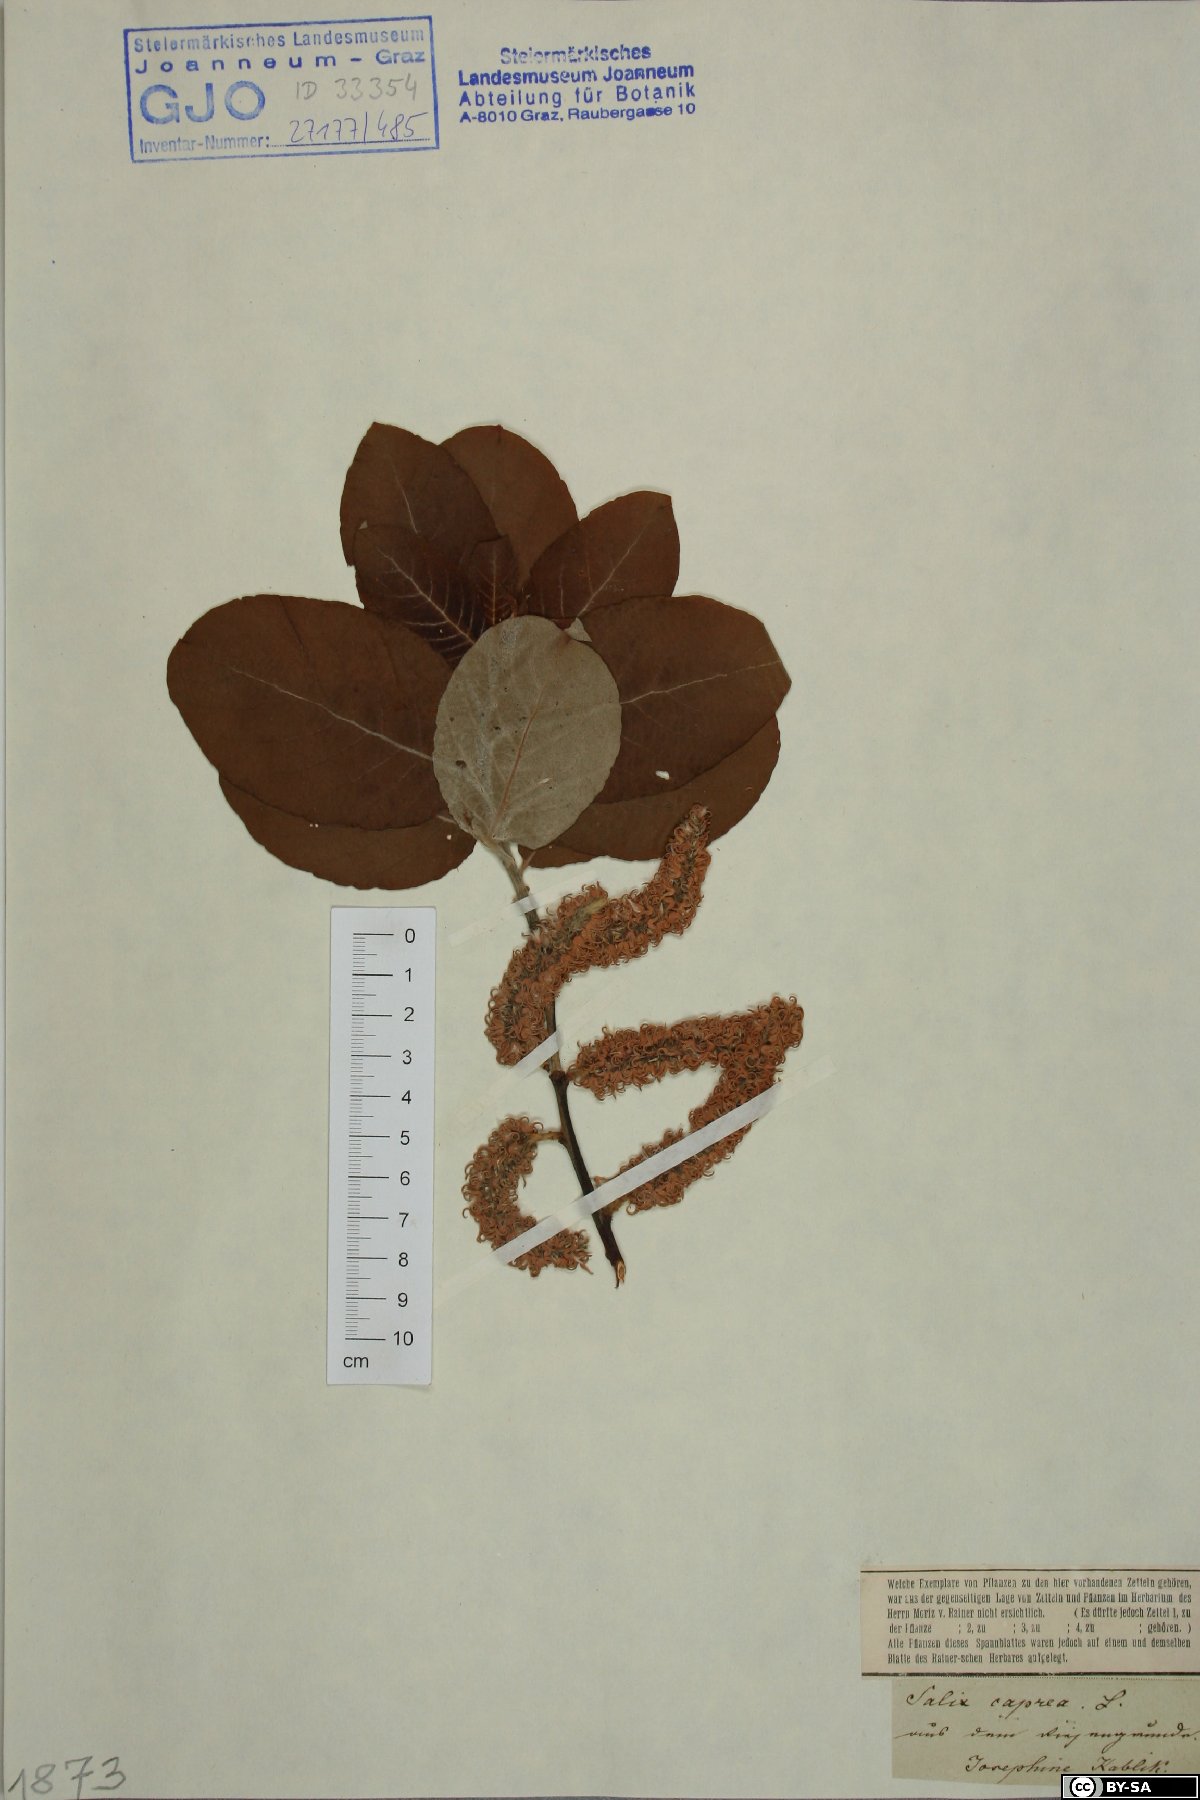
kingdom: Plantae
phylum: Tracheophyta
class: Magnoliopsida
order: Malpighiales
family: Salicaceae
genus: Salix
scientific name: Salix caprea
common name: Goat willow
